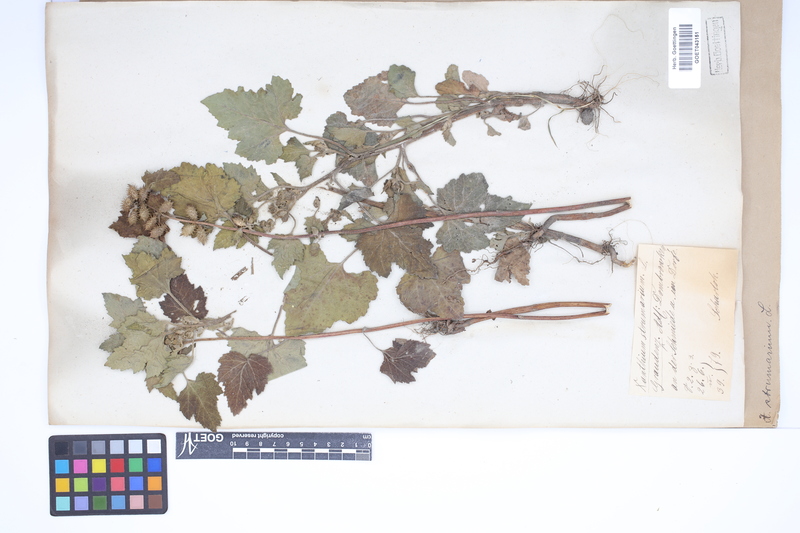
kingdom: Plantae
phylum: Tracheophyta
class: Magnoliopsida
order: Asterales
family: Asteraceae
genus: Xanthium
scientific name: Xanthium strumarium
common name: Rough cocklebur
